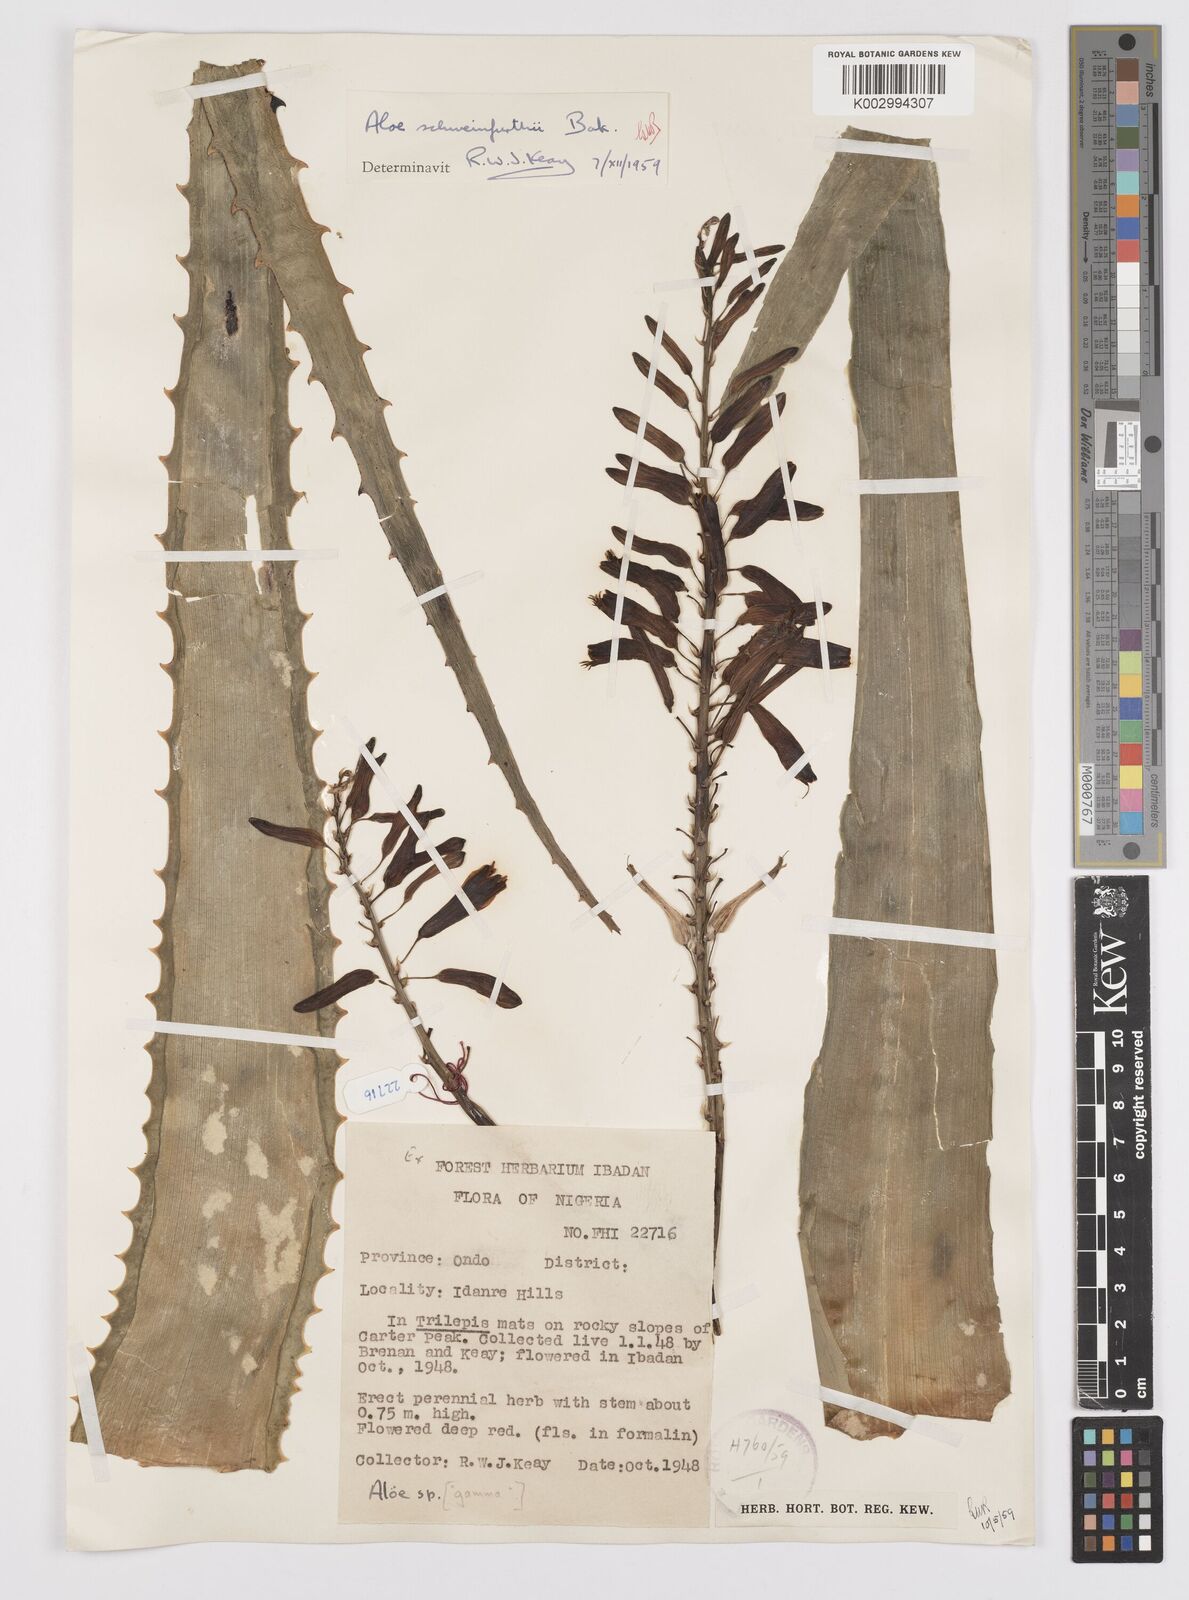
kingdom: Plantae
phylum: Tracheophyta
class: Liliopsida
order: Asparagales
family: Asphodelaceae
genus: Aloe
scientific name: Aloe schweinfurthii
